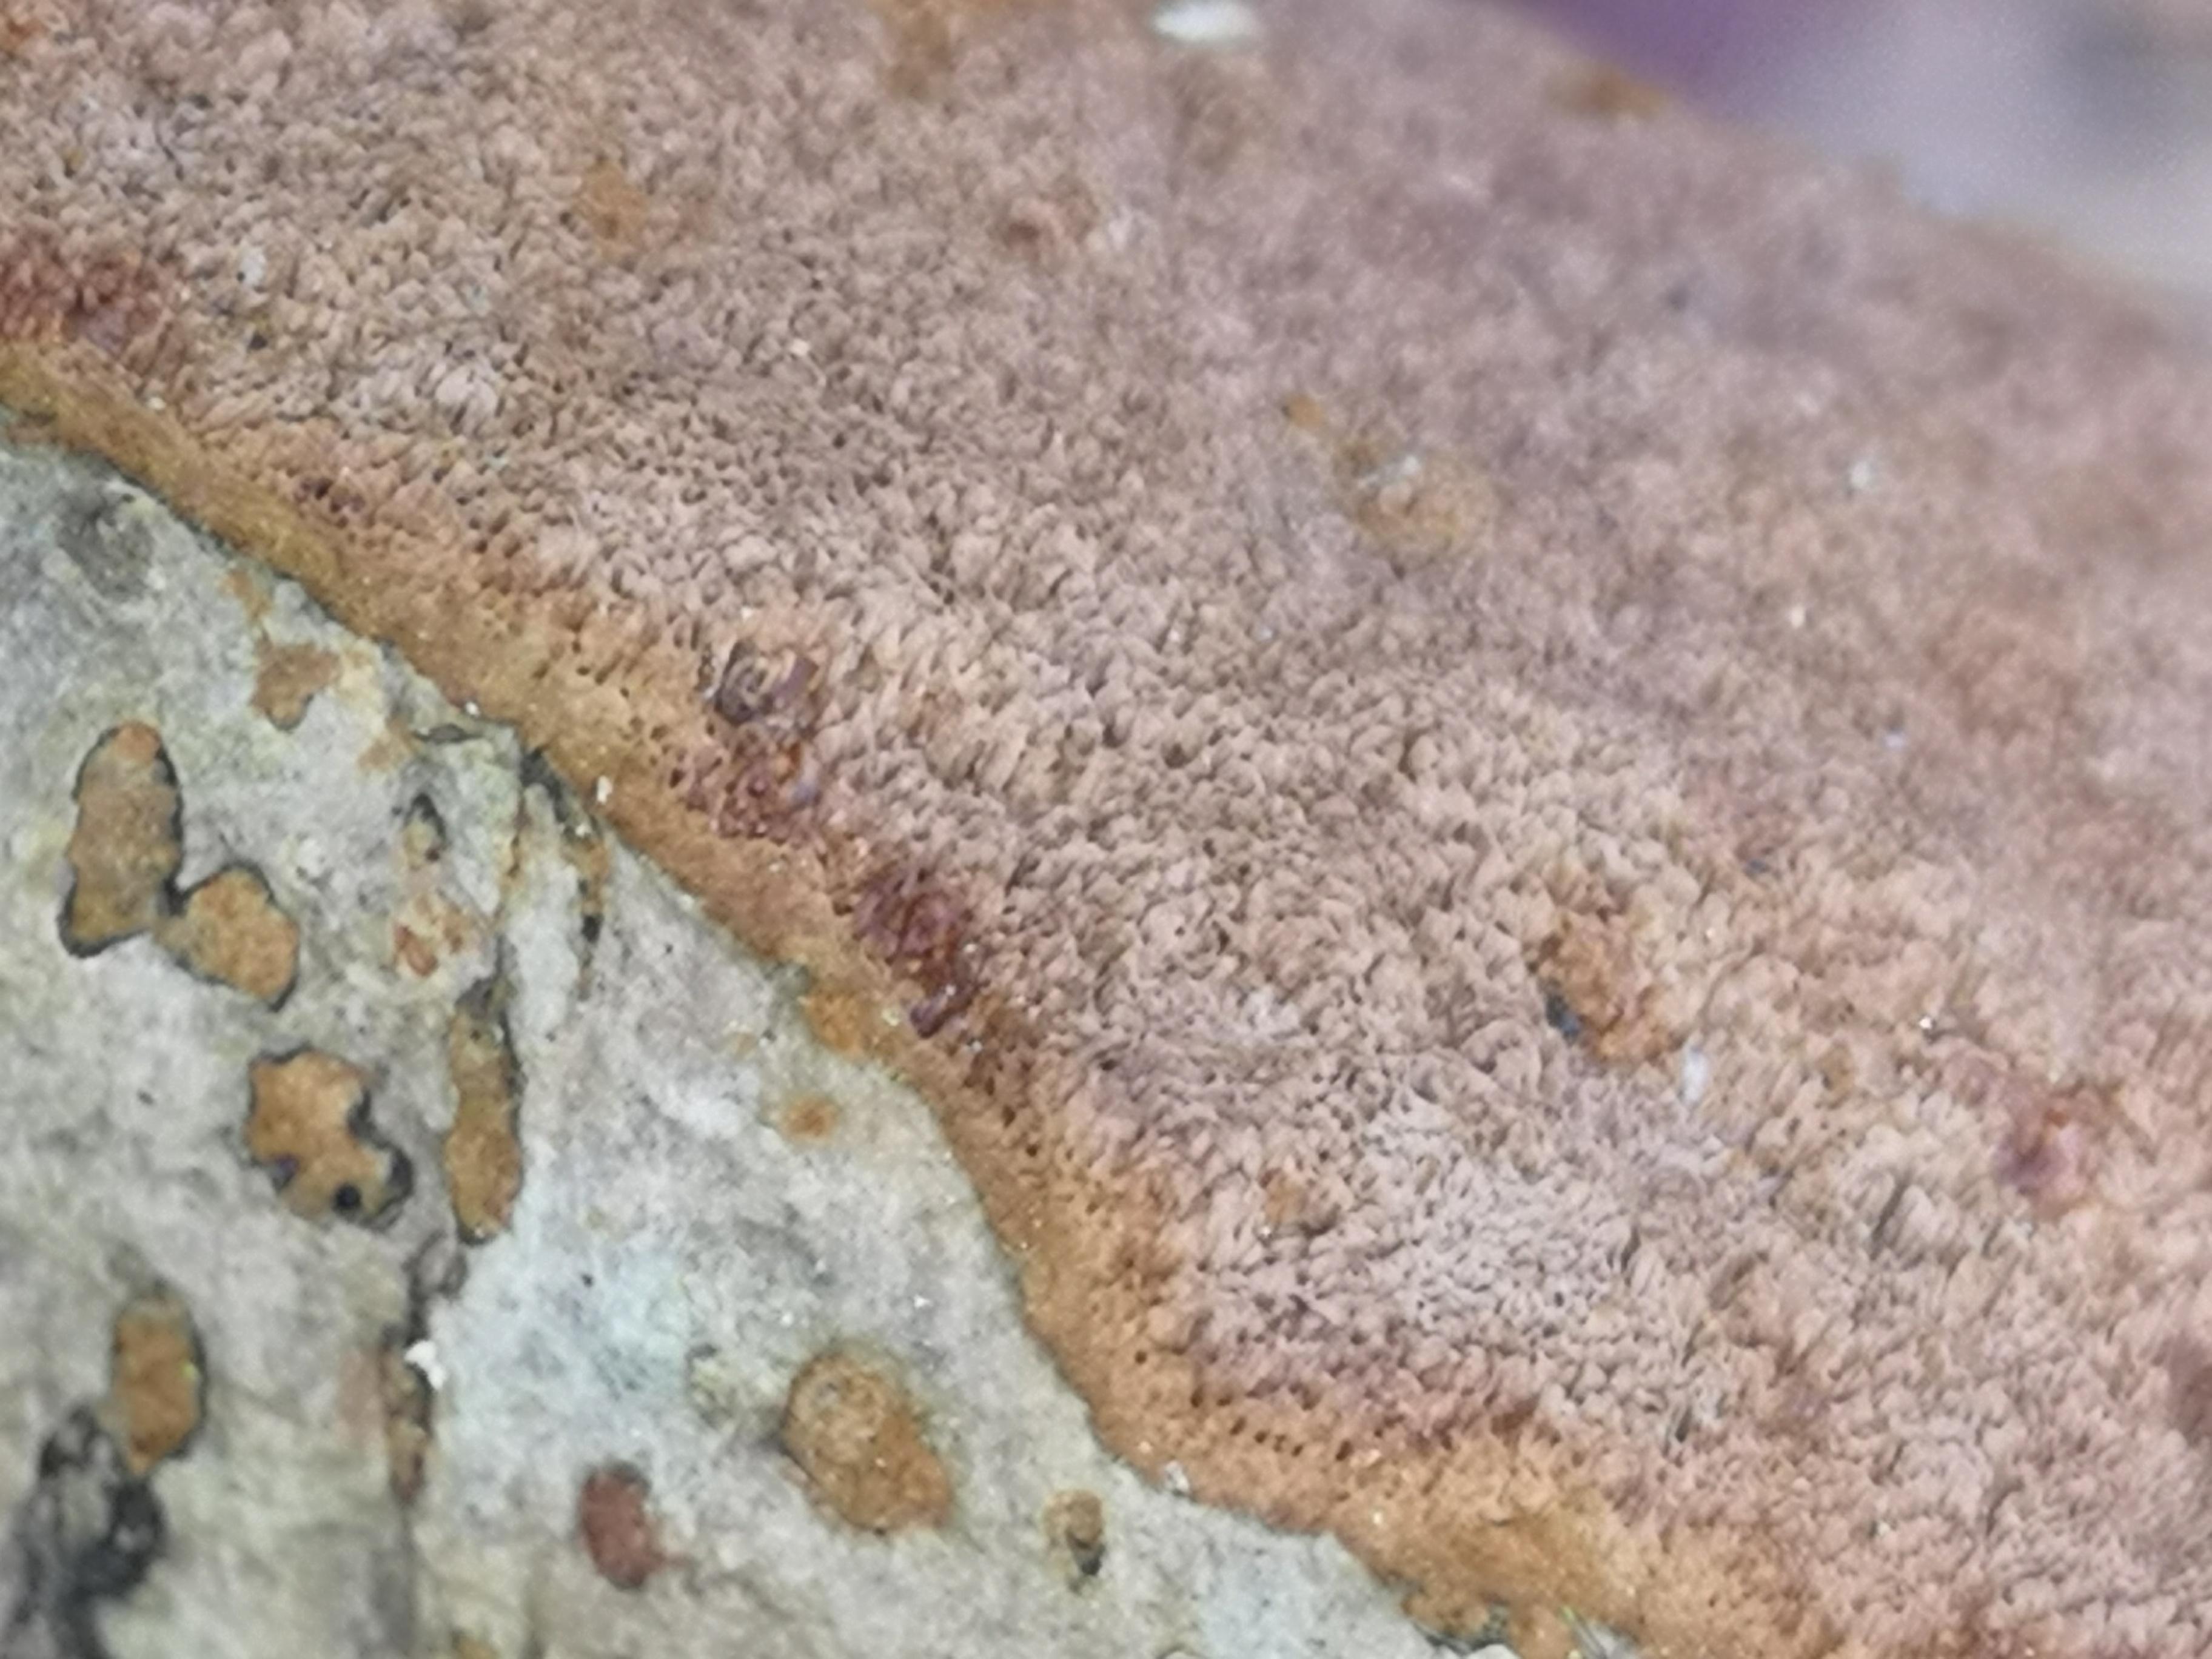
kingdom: Fungi
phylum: Basidiomycota
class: Agaricomycetes
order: Hymenochaetales
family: Hymenochaetaceae
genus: Fuscoporia
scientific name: Fuscoporia ferrea
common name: skorpe-ildporesvamp
